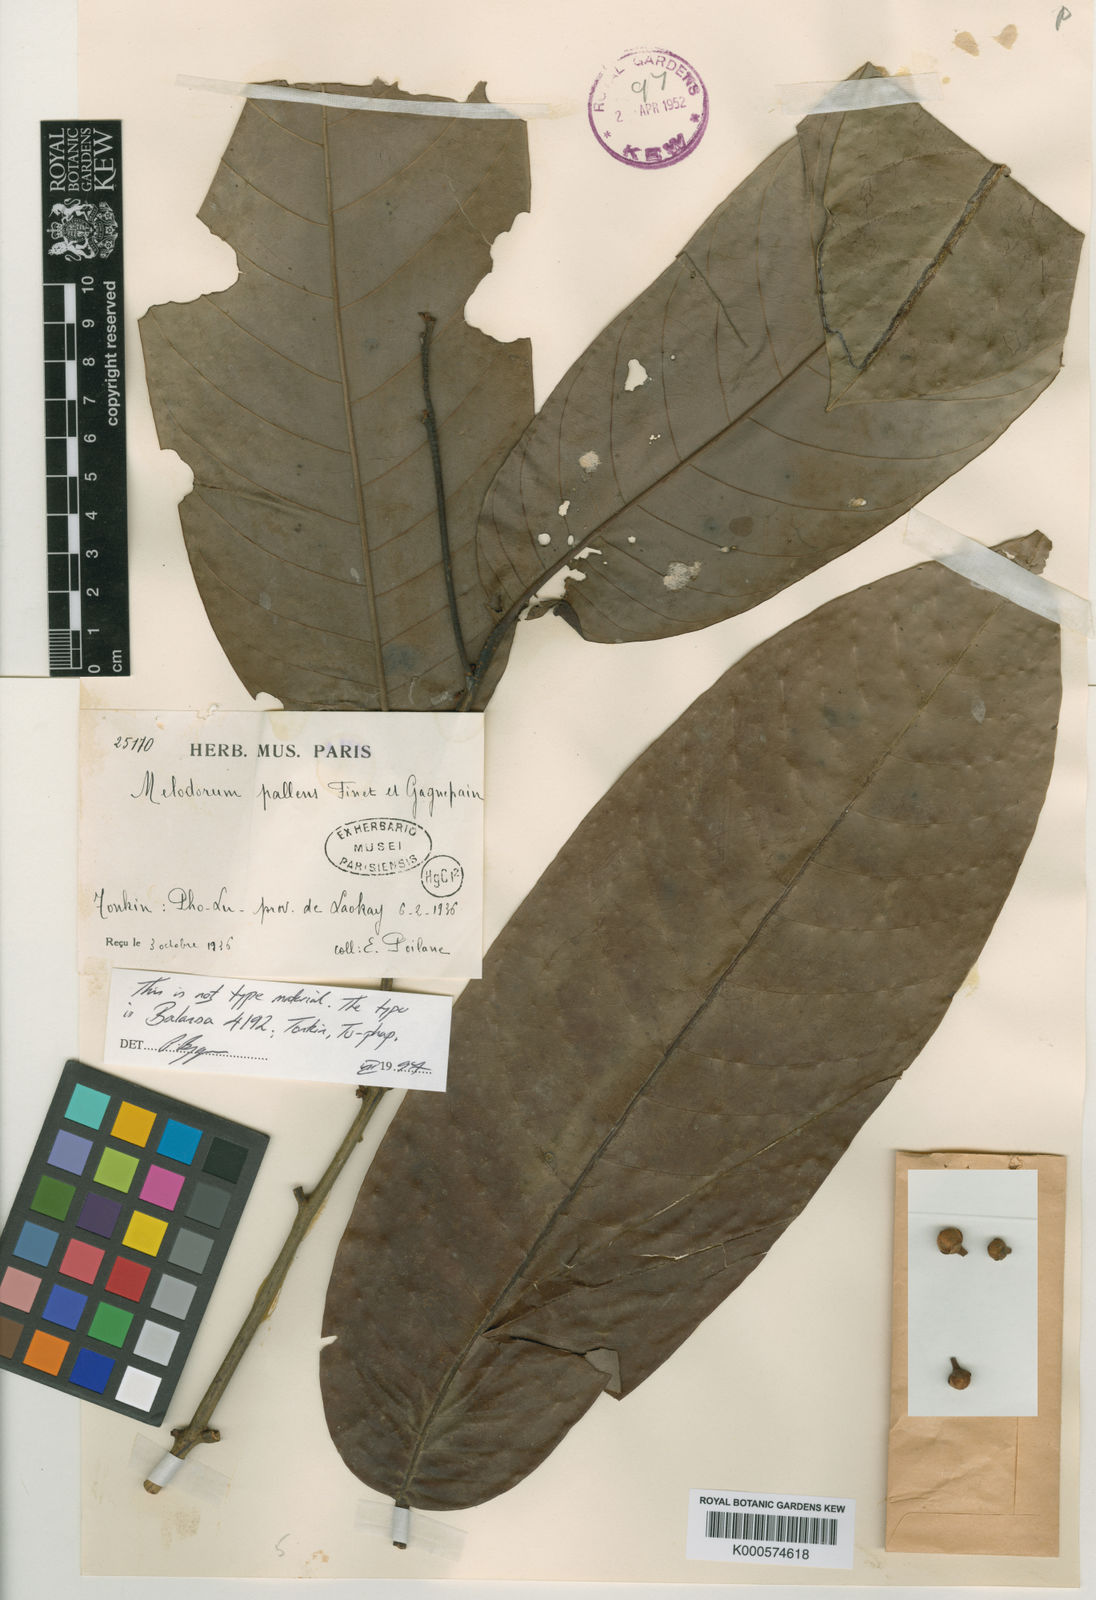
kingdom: Plantae
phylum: Tracheophyta
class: Magnoliopsida
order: Magnoliales
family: Annonaceae
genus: Fissistigma
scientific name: Fissistigma pallens
